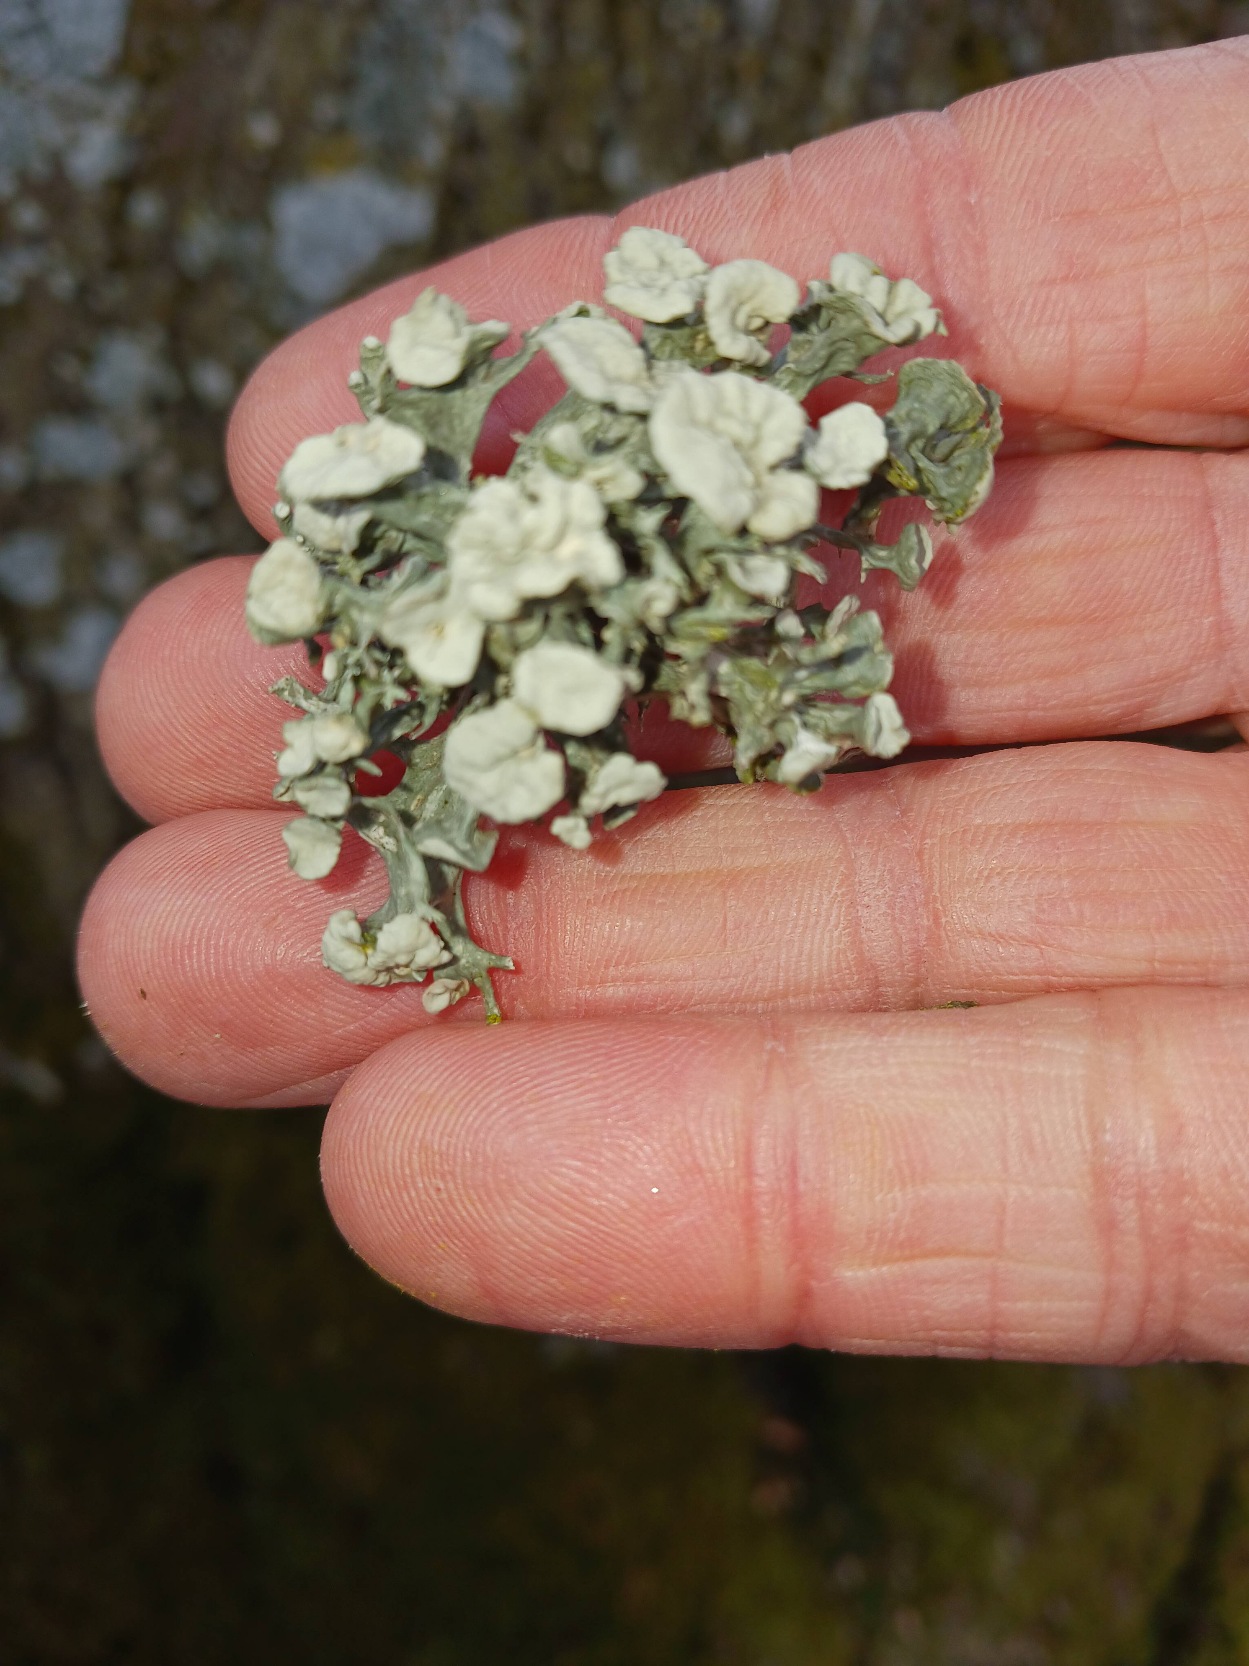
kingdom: Fungi
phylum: Ascomycota
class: Lecanoromycetes
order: Lecanorales
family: Ramalinaceae
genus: Ramalina
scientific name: Ramalina fastigiata
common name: Tue-grenlav
